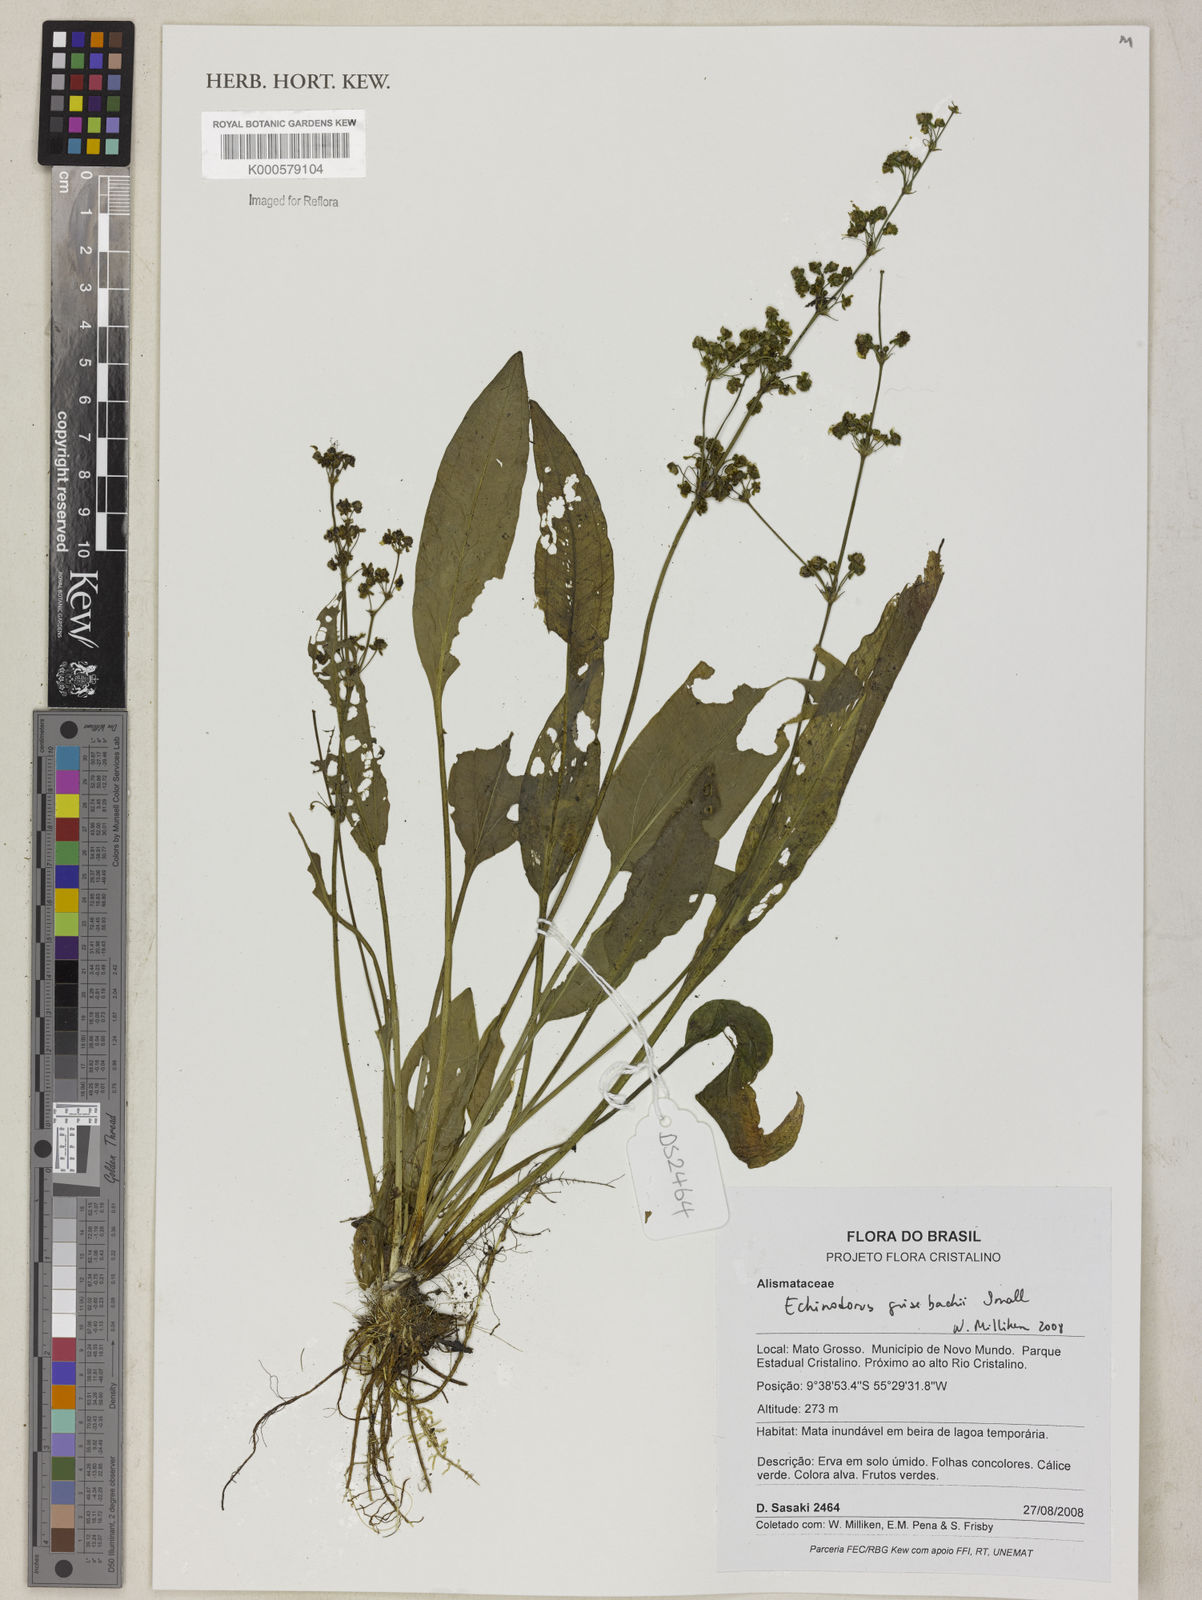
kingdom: Plantae
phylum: Tracheophyta
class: Liliopsida
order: Alismatales
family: Alismataceae
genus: Aquarius
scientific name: Aquarius grisebachii
